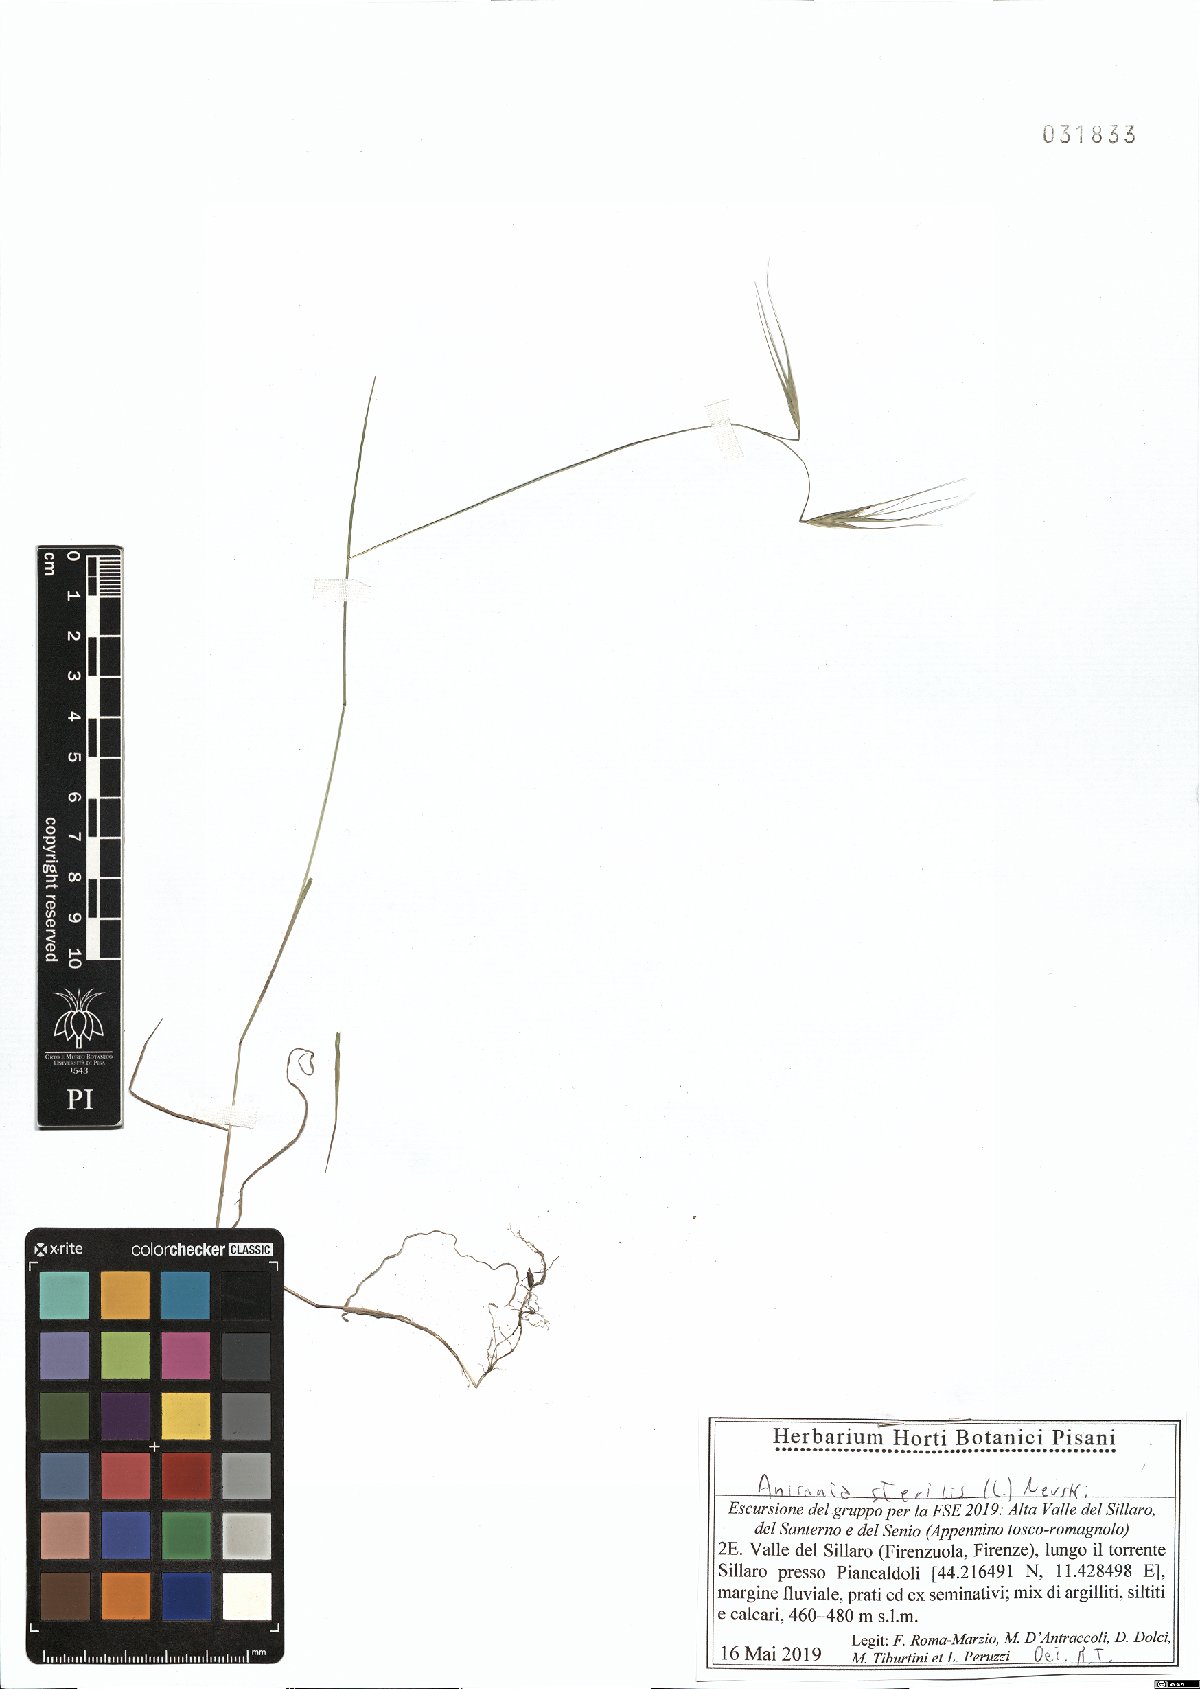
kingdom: Plantae
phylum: Tracheophyta
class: Liliopsida
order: Poales
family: Poaceae
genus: Bromus
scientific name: Bromus sterilis
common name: Poverty brome
